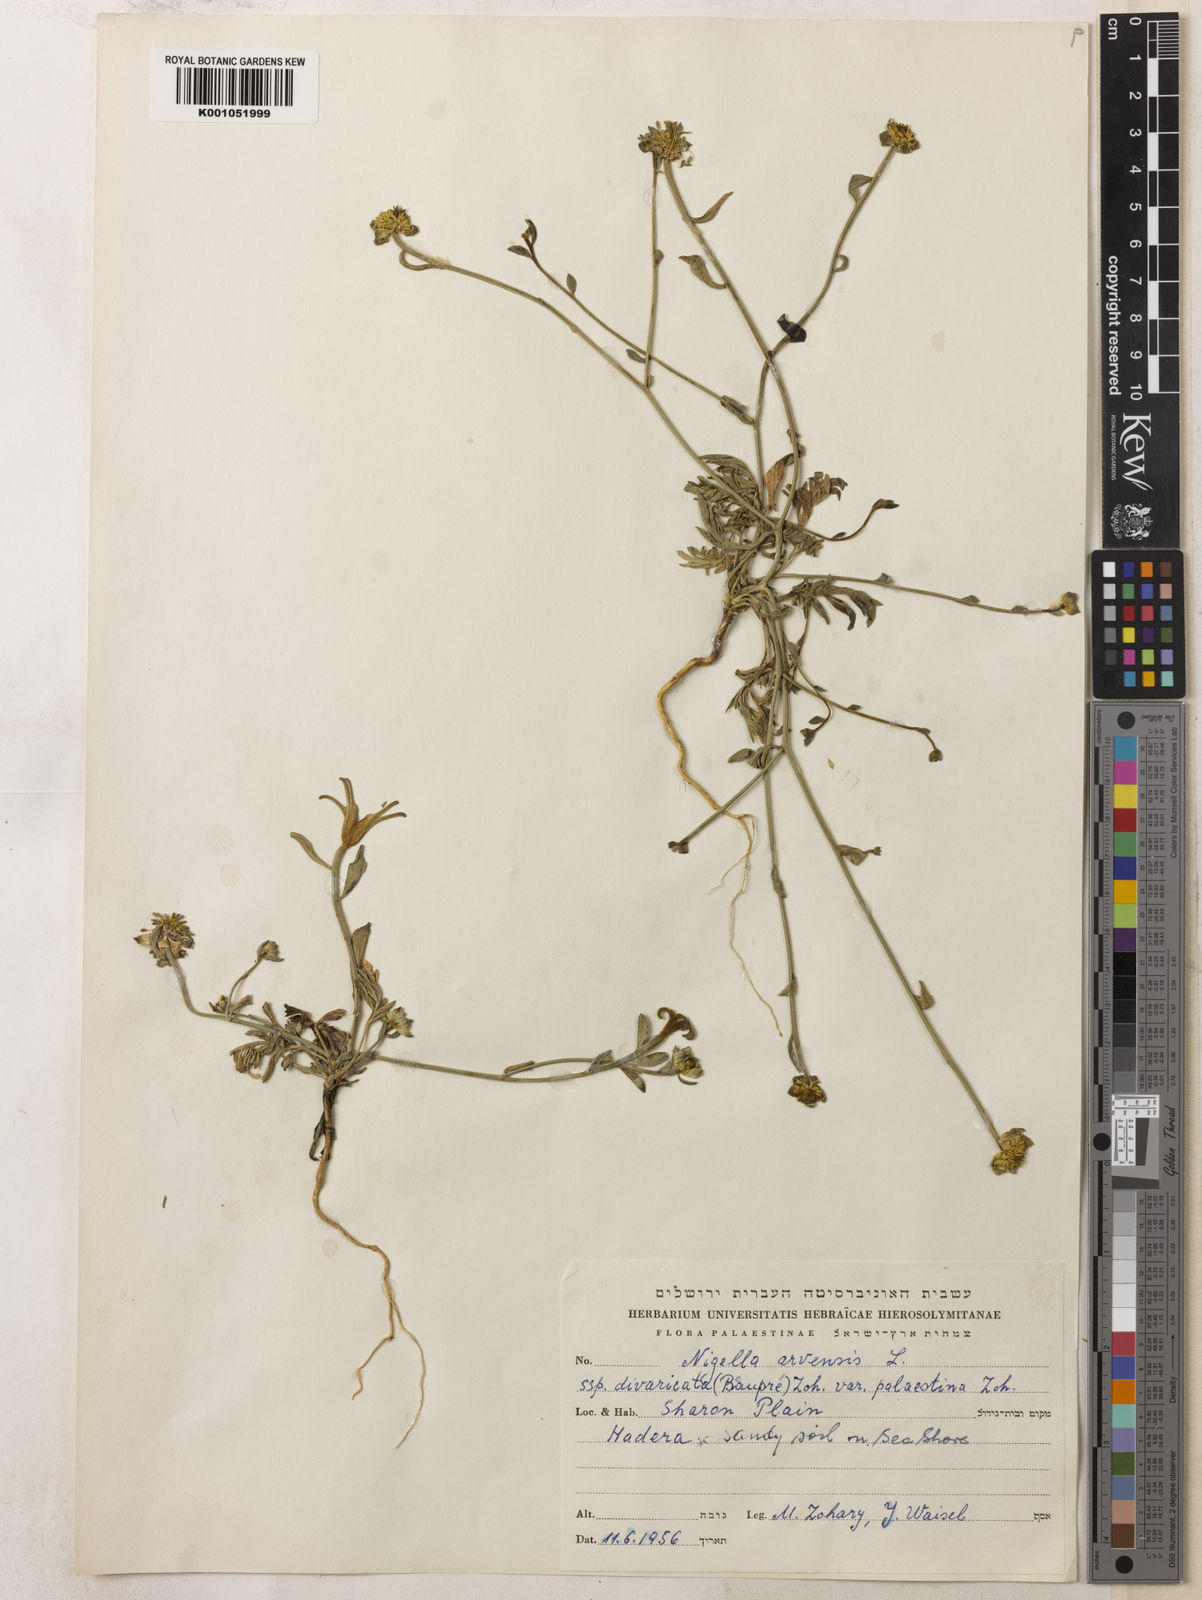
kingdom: Plantae
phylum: Tracheophyta
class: Magnoliopsida
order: Ranunculales
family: Ranunculaceae
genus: Nigella
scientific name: Nigella arvensis
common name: Wild fennel-flower
